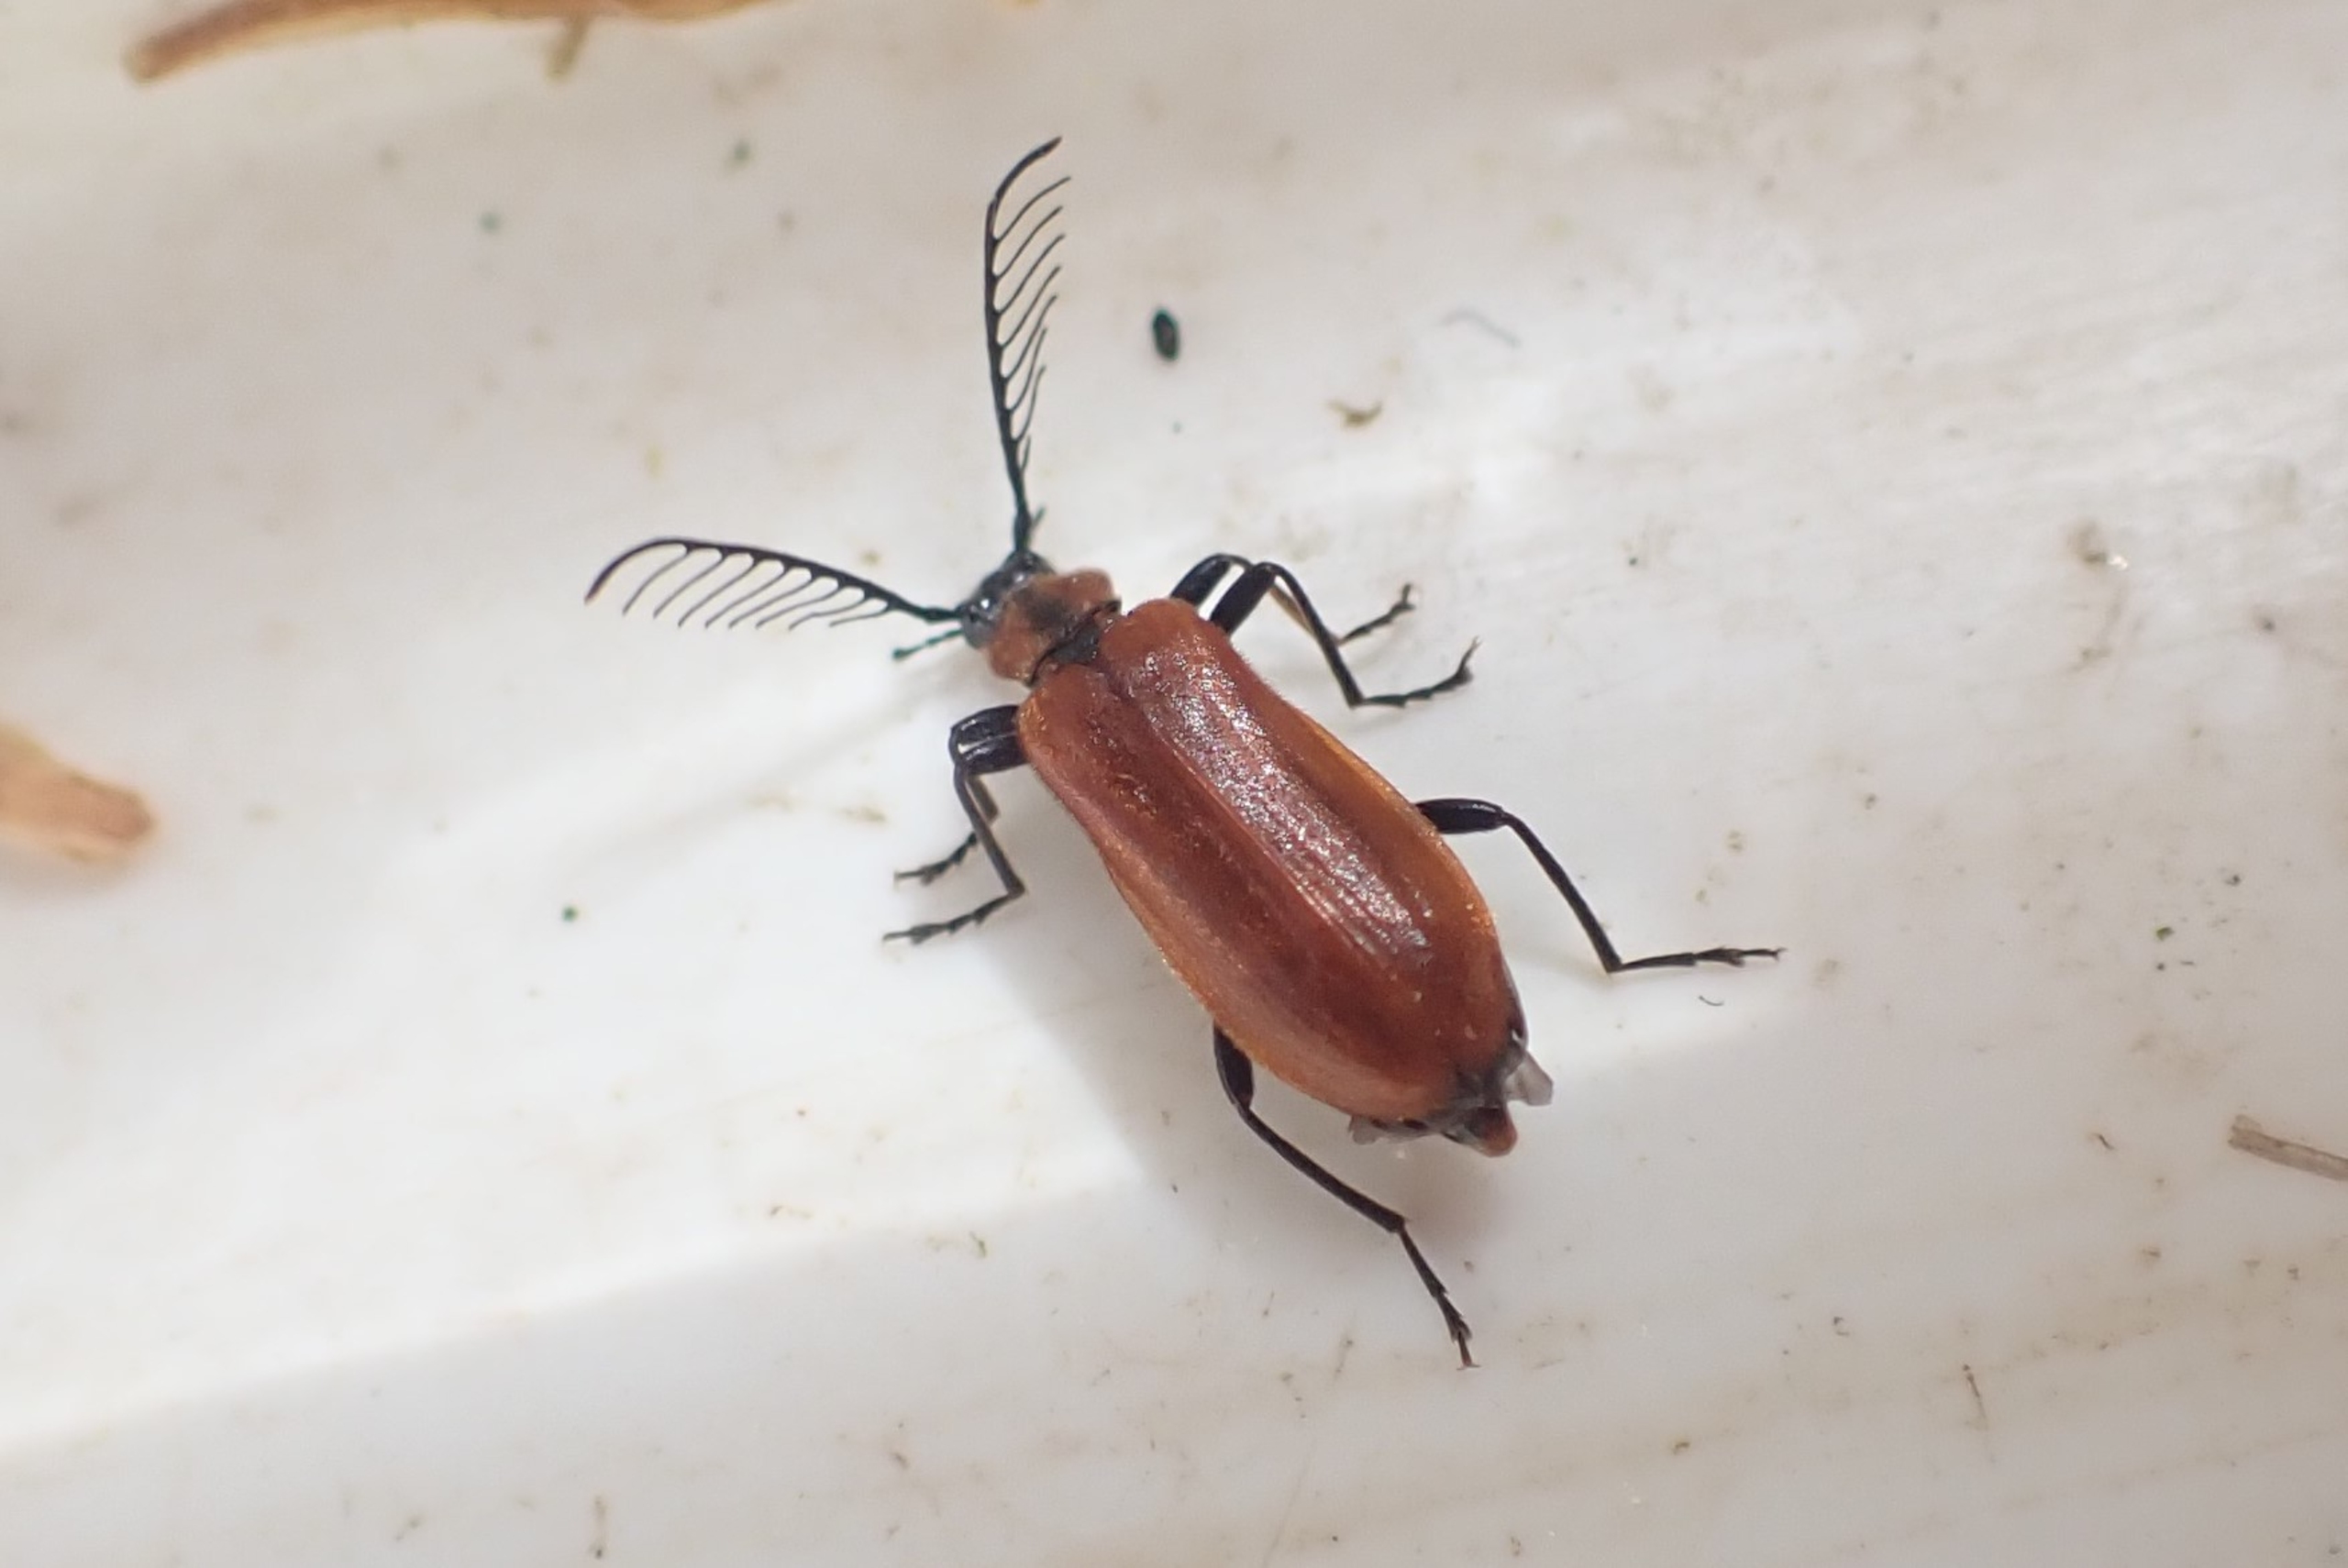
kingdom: Animalia
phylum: Arthropoda
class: Insecta
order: Coleoptera
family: Pyrochroidae
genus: Schizotus
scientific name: Schizotus pectinicornis
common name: Lille kardinalbille
